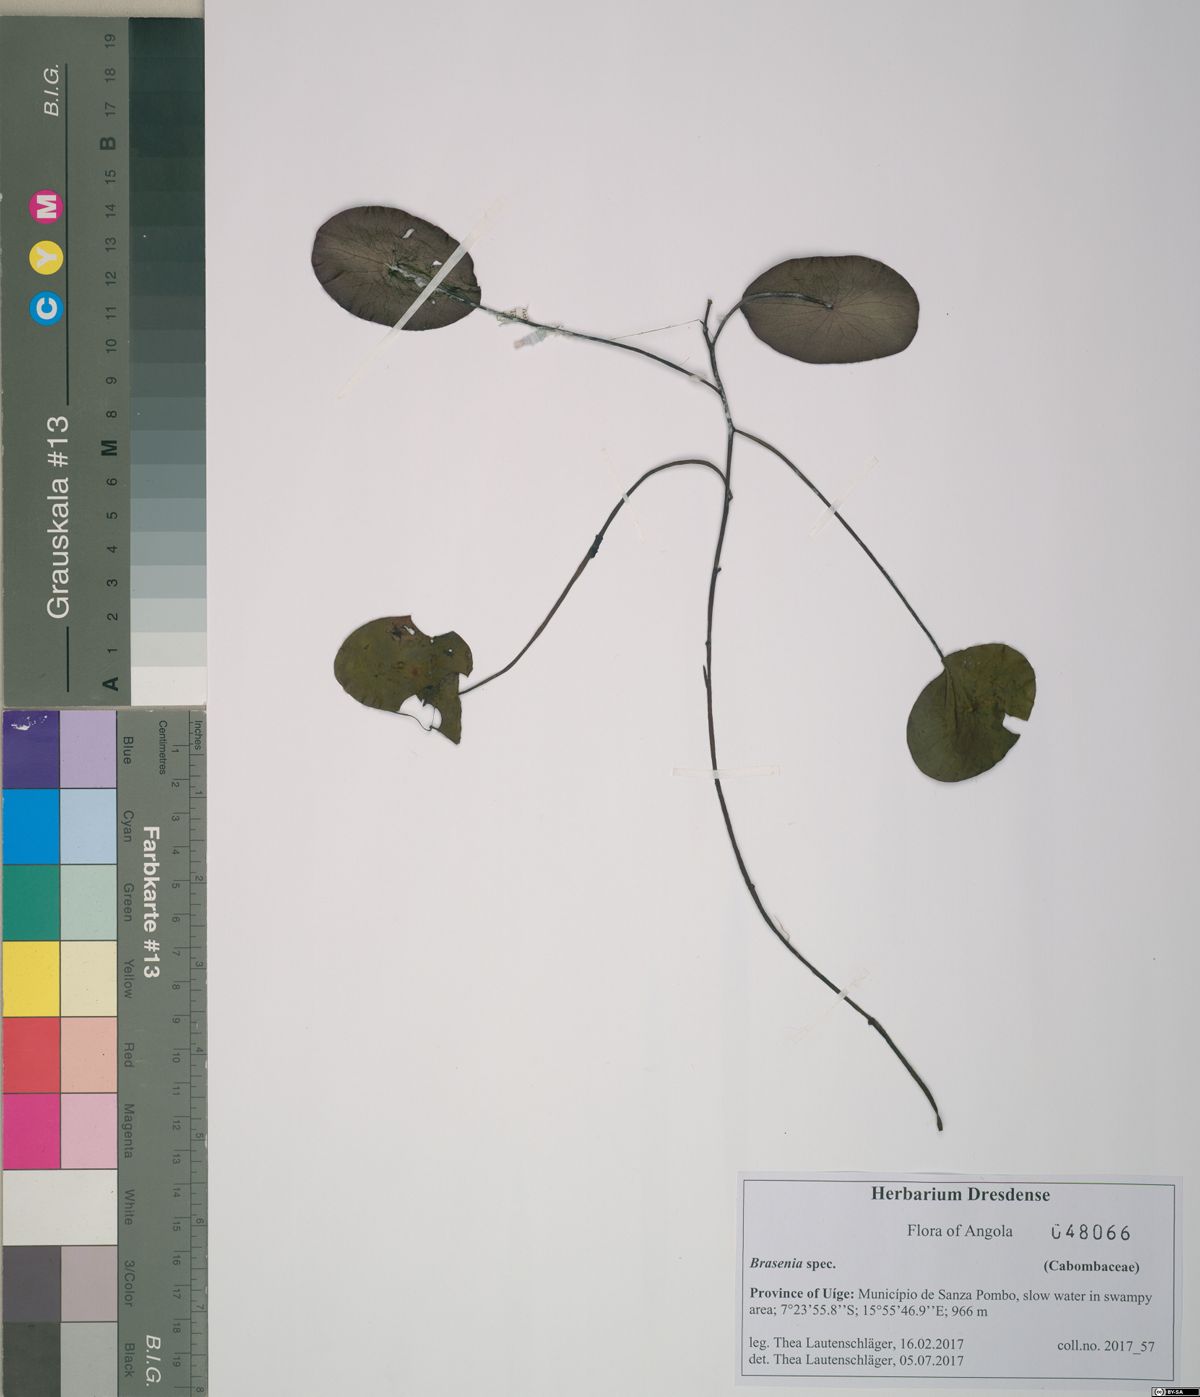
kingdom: Plantae
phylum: Tracheophyta
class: Magnoliopsida
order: Nymphaeales
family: Cabombaceae
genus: Brasenia
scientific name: Brasenia
